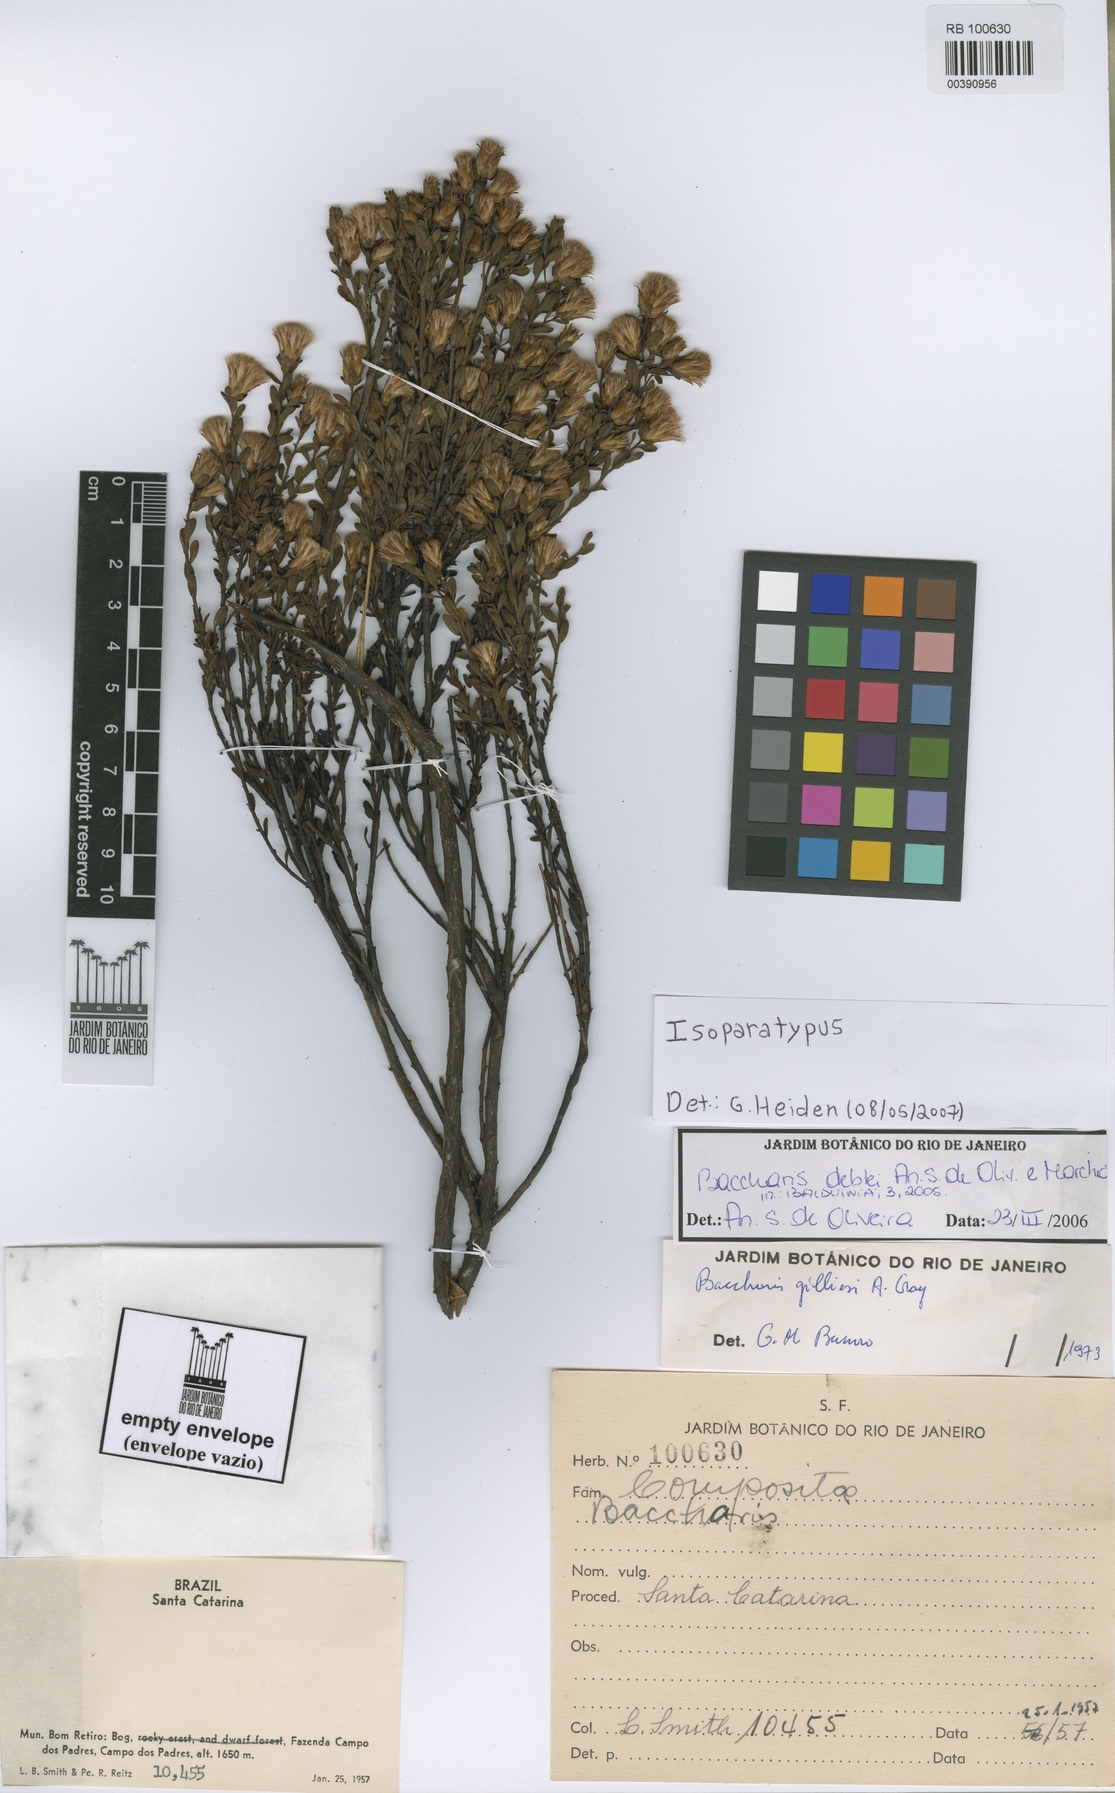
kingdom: Plantae
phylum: Tracheophyta
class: Magnoliopsida
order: Asterales
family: Asteraceae
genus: Baccharis
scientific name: Baccharis deblei
